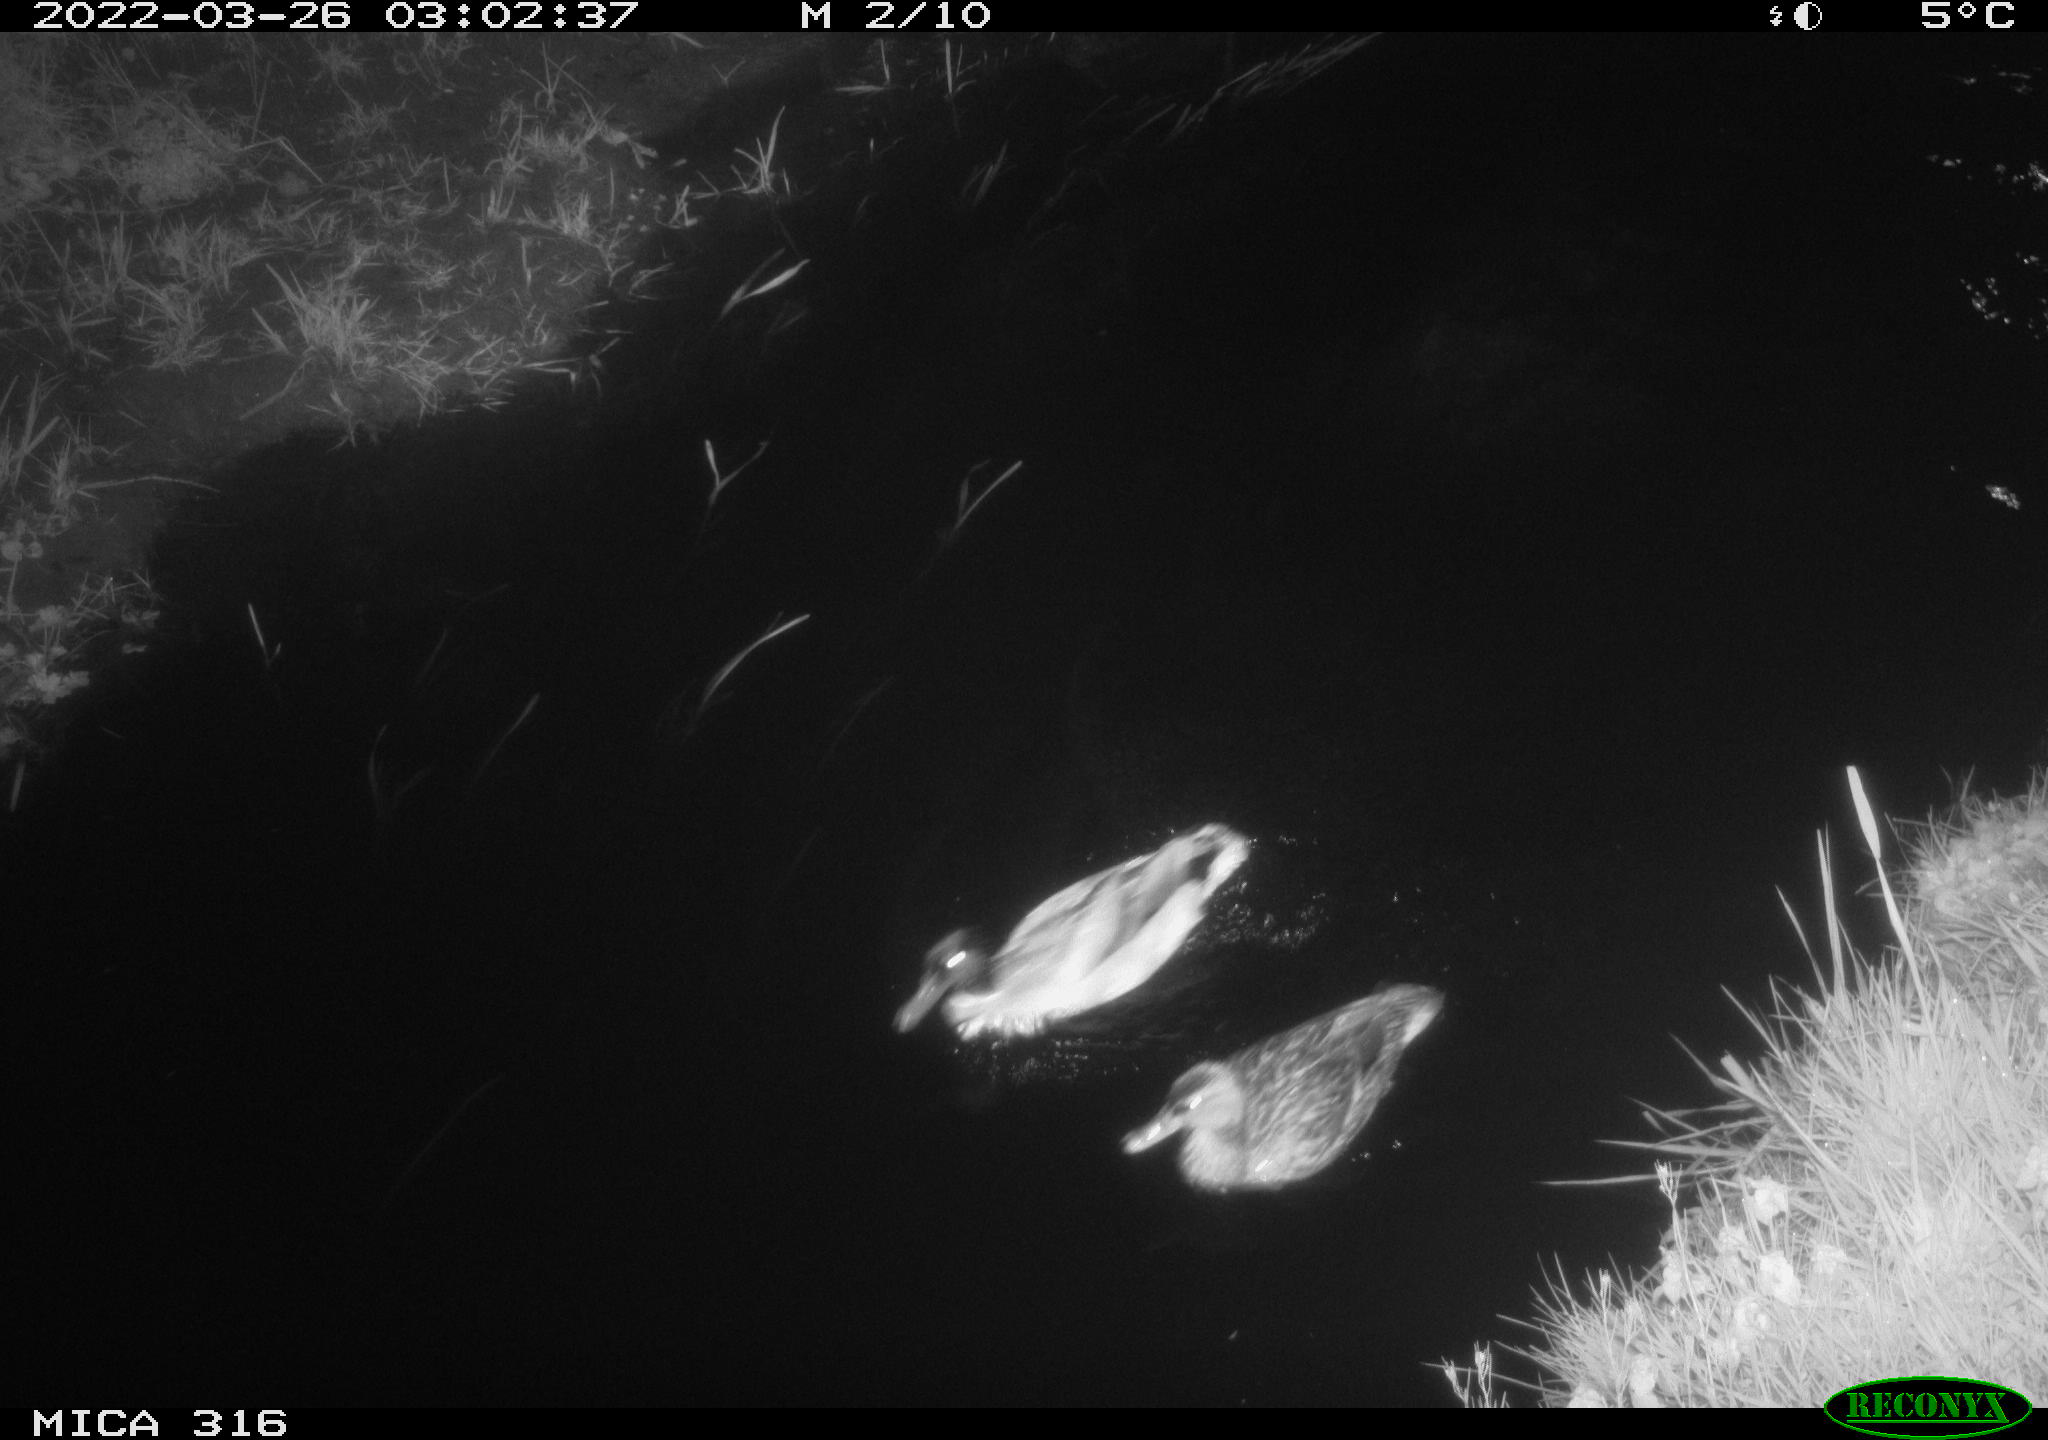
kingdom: Animalia
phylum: Chordata
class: Aves
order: Anseriformes
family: Anatidae
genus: Anas
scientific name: Anas platyrhynchos
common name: Mallard
